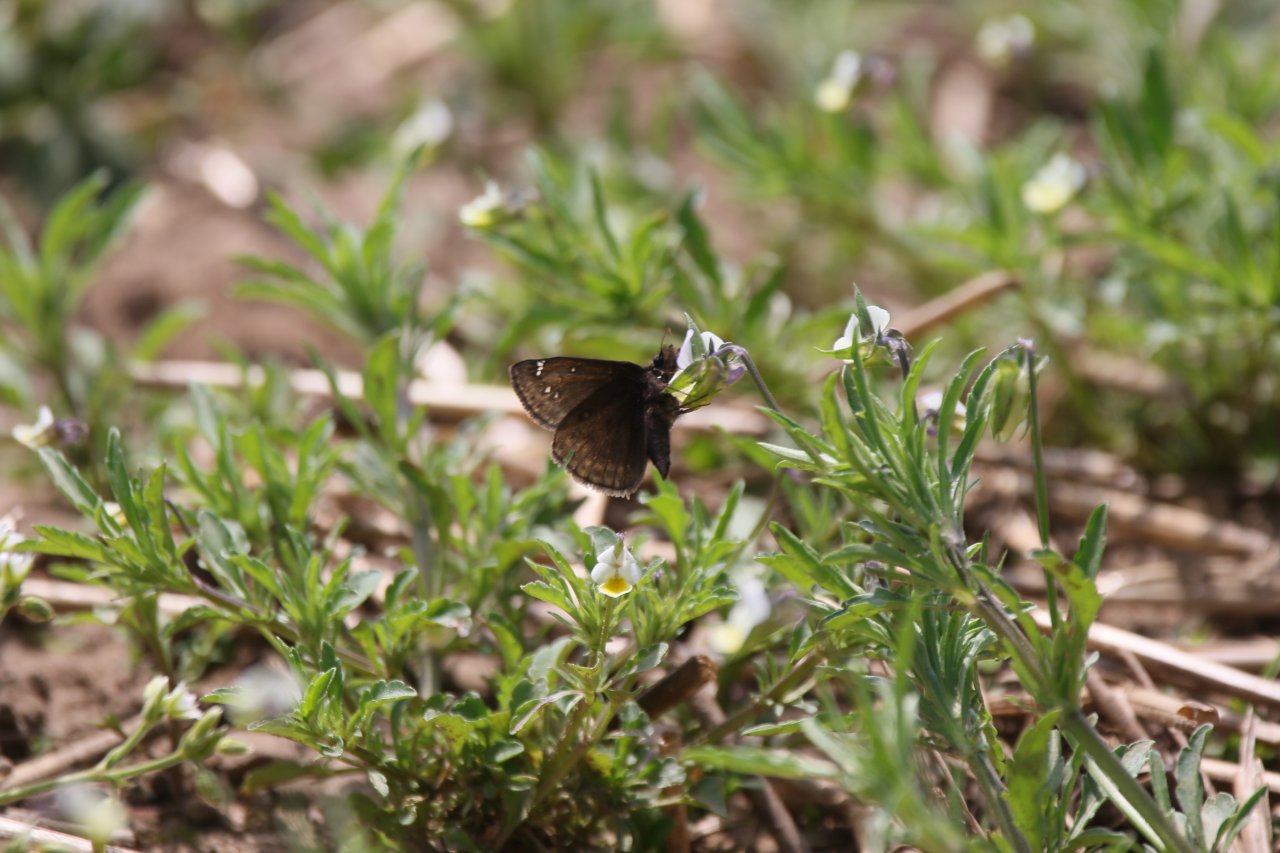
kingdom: Animalia
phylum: Arthropoda
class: Insecta
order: Lepidoptera
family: Hesperiidae
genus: Gesta
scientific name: Gesta
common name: Wild Indigo Duskywing
